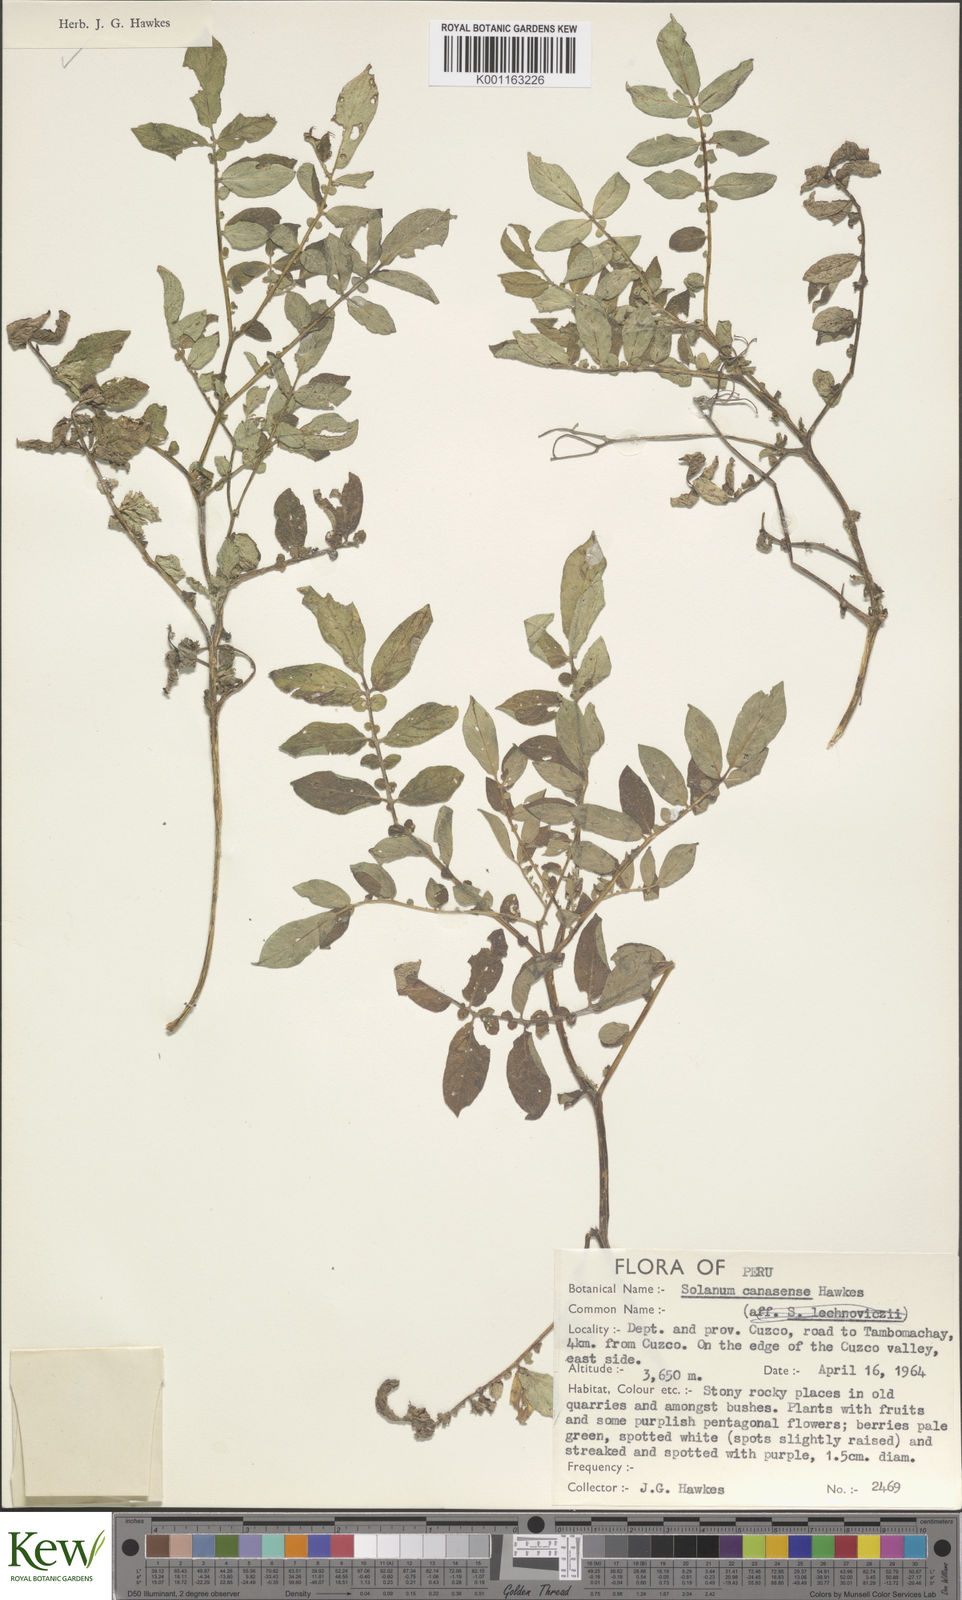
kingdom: Plantae
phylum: Tracheophyta
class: Magnoliopsida
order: Solanales
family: Solanaceae
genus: Solanum
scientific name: Solanum candolleanum
